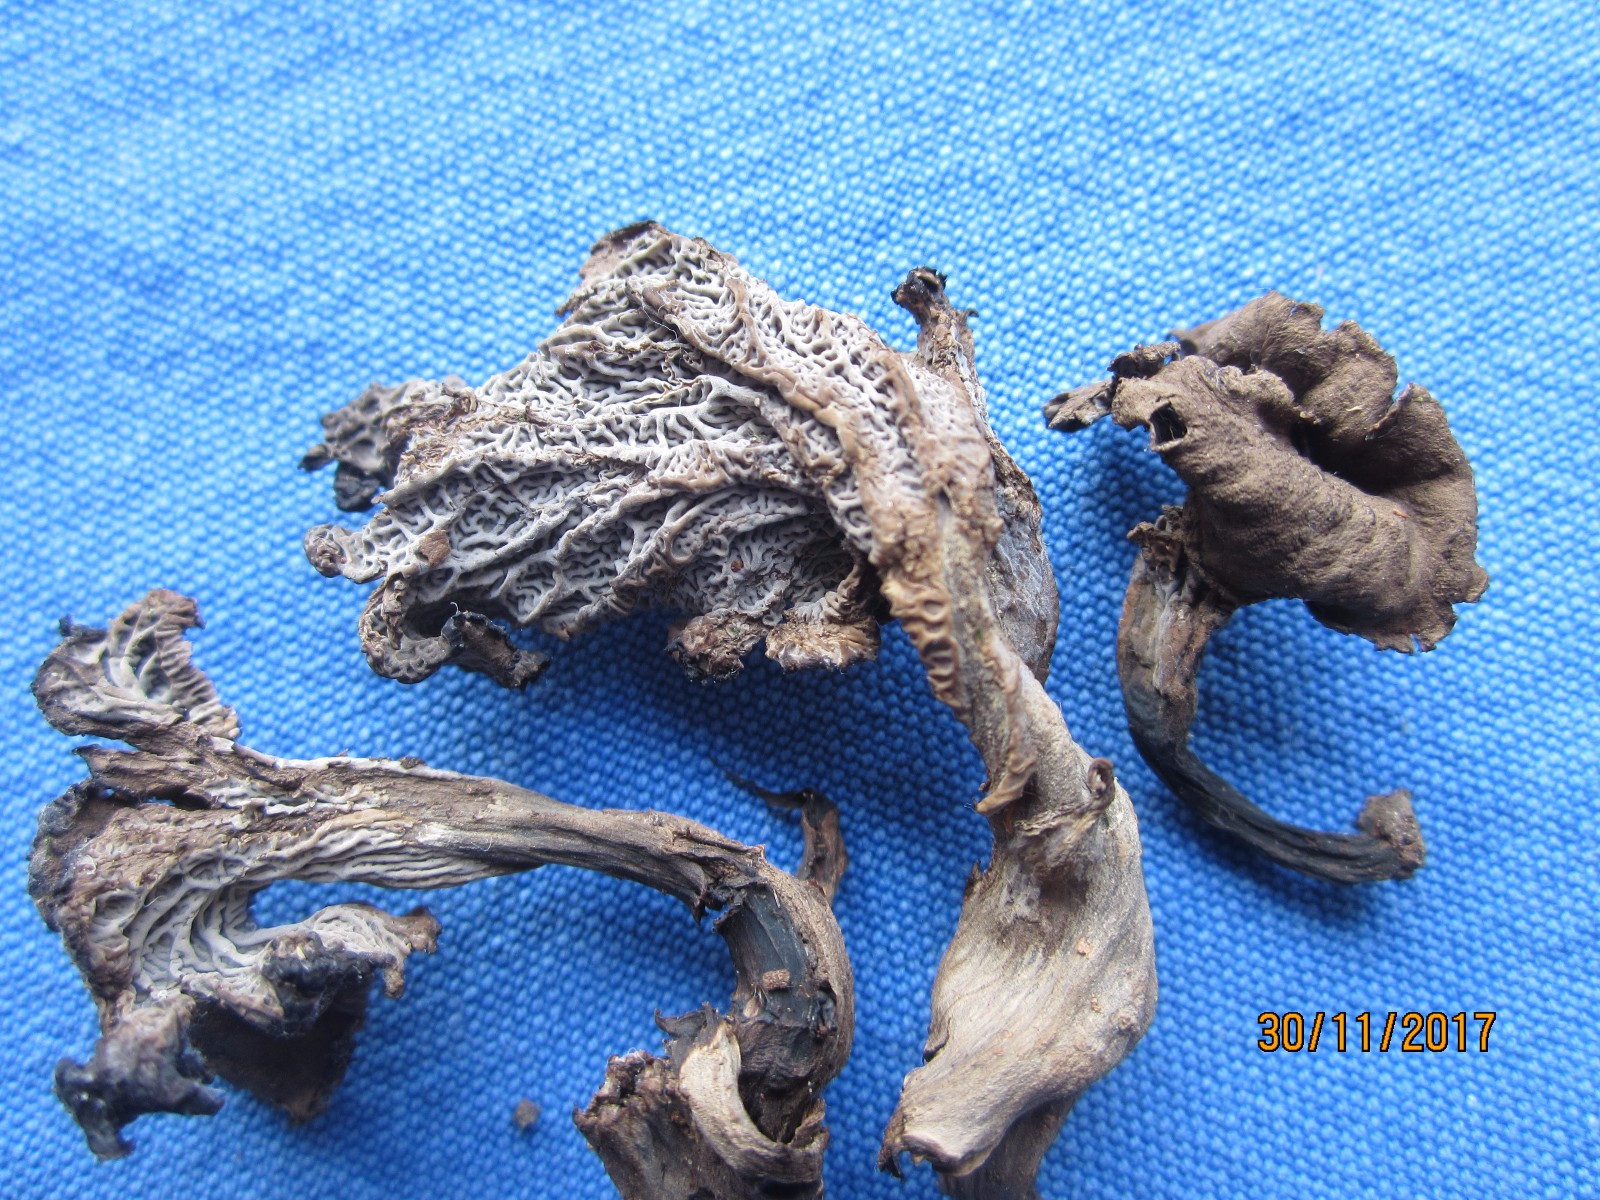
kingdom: Fungi
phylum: Basidiomycota
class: Agaricomycetes
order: Cantharellales
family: Hydnaceae
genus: Cantharellus
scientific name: Cantharellus cinereus
